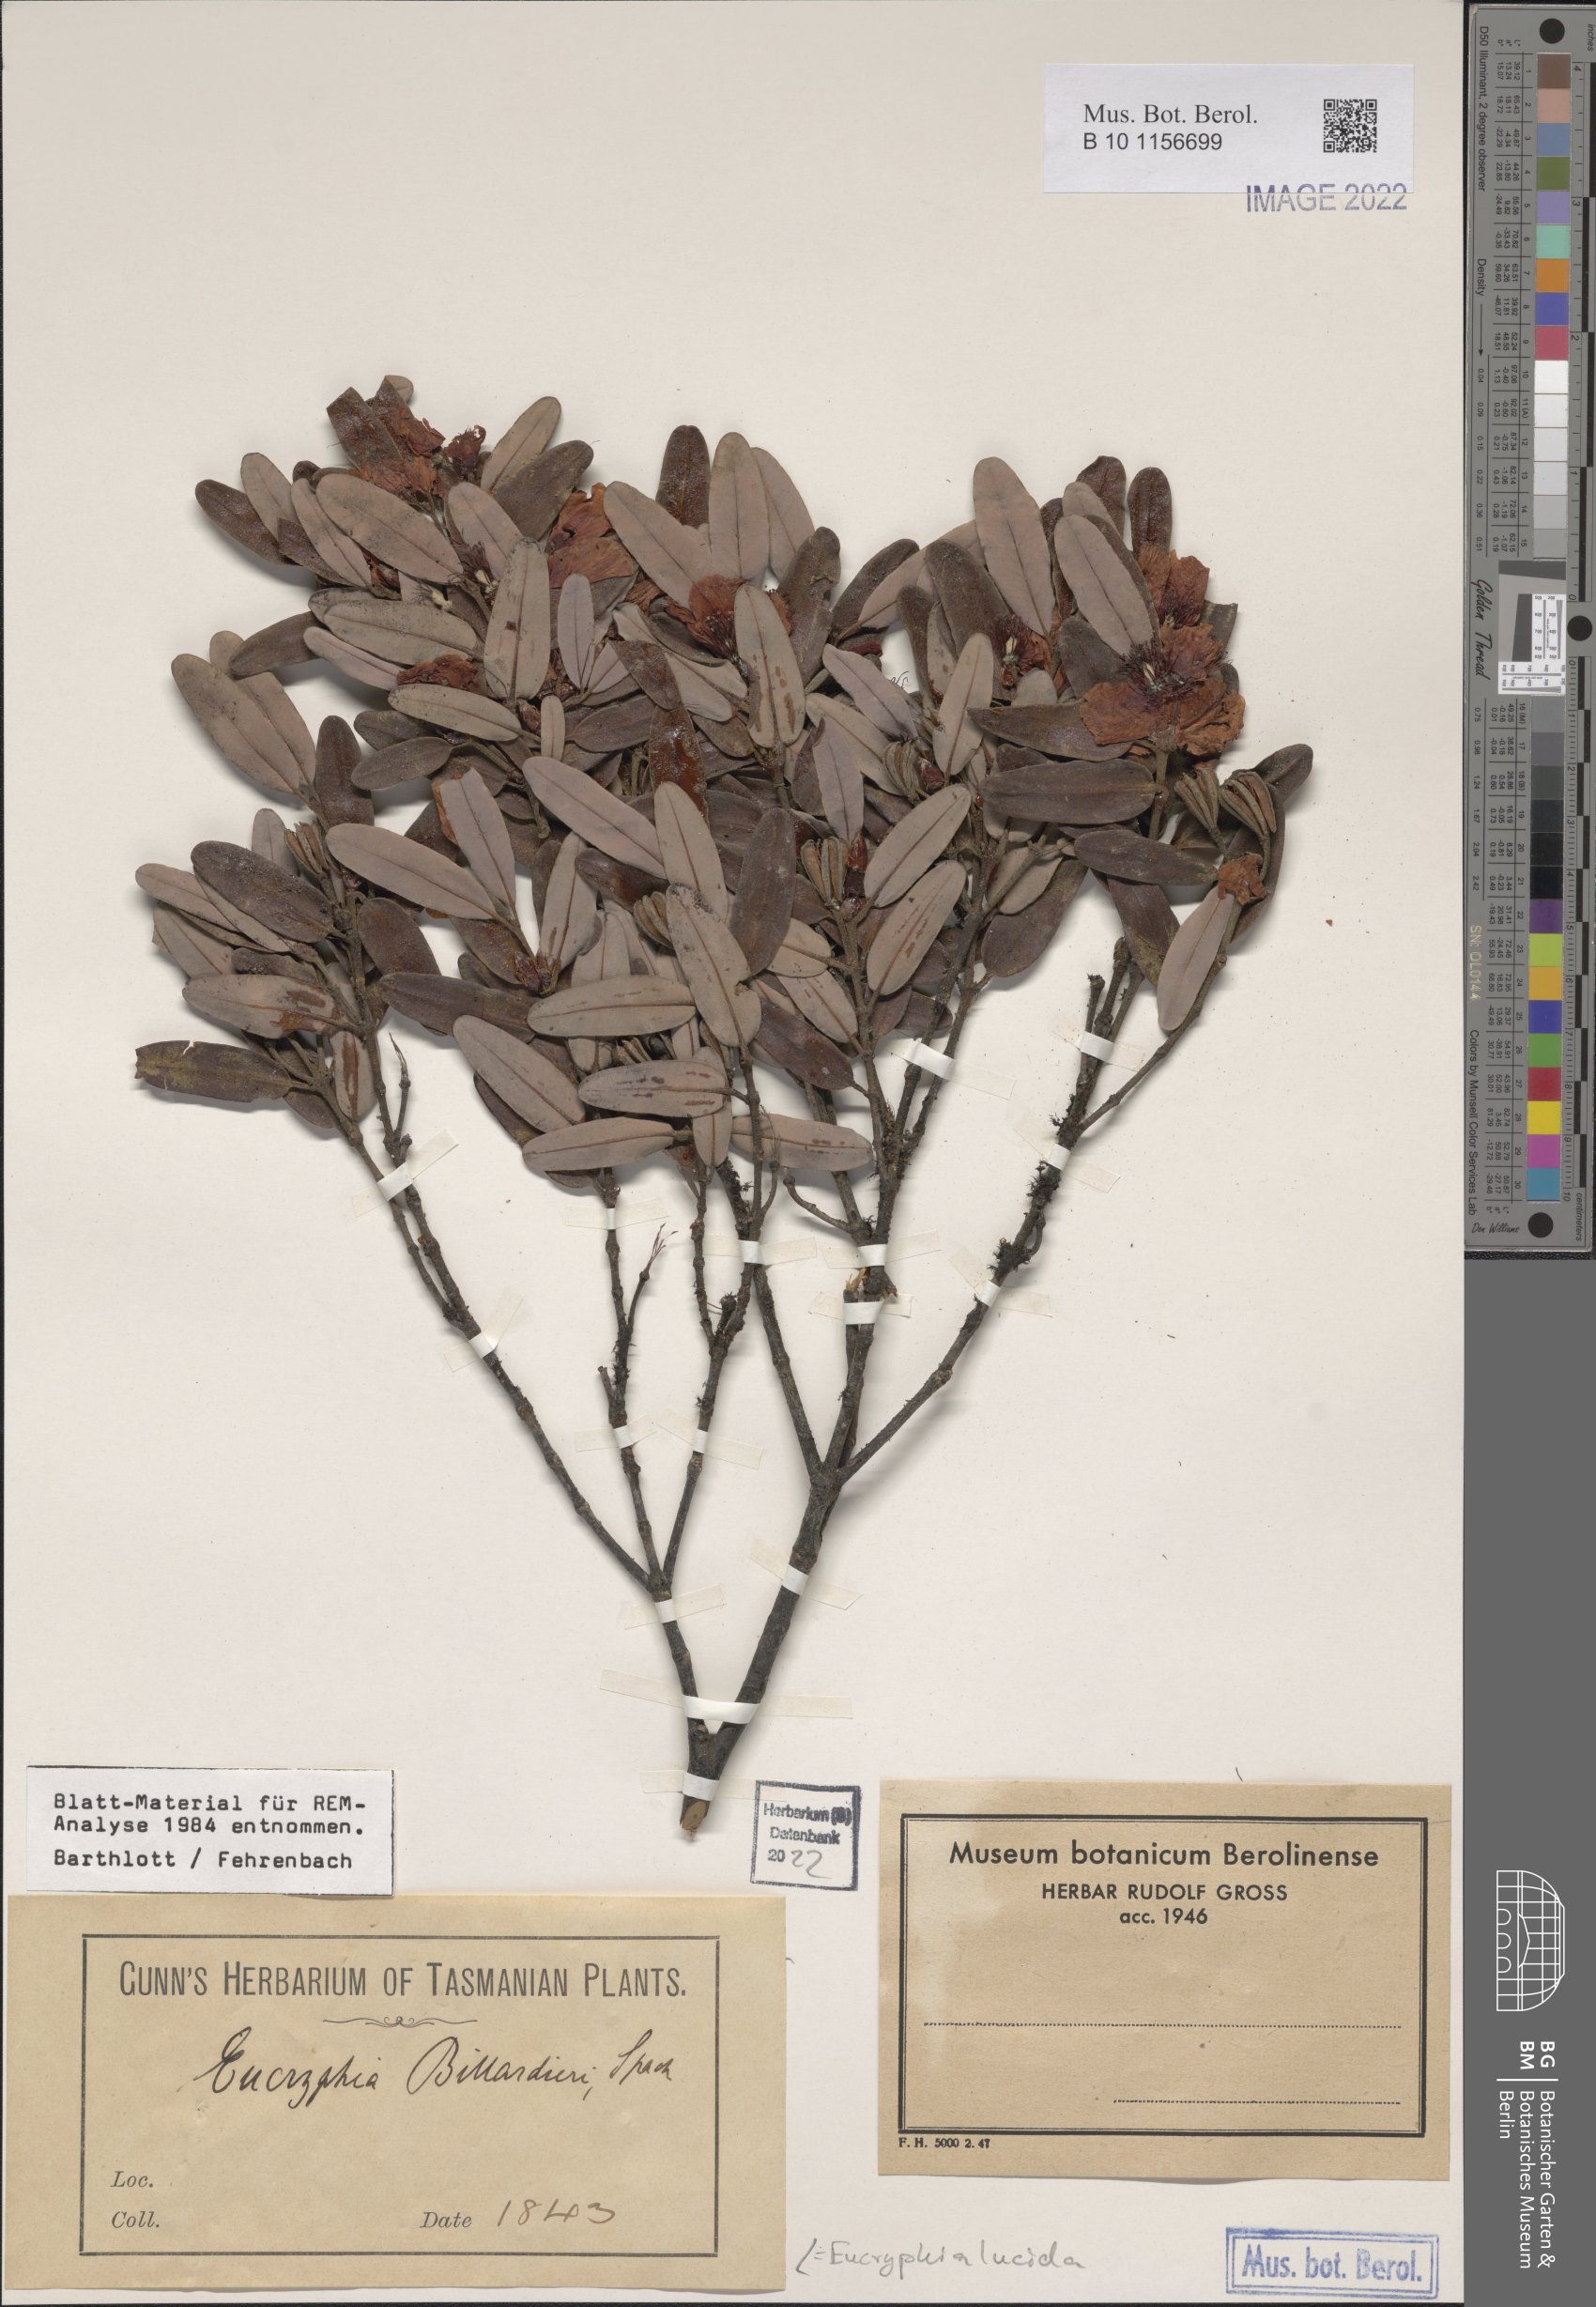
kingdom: Plantae
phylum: Tracheophyta
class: Magnoliopsida
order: Oxalidales
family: Cunoniaceae
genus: Eucryphia
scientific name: Eucryphia lucida
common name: Leatherwood
